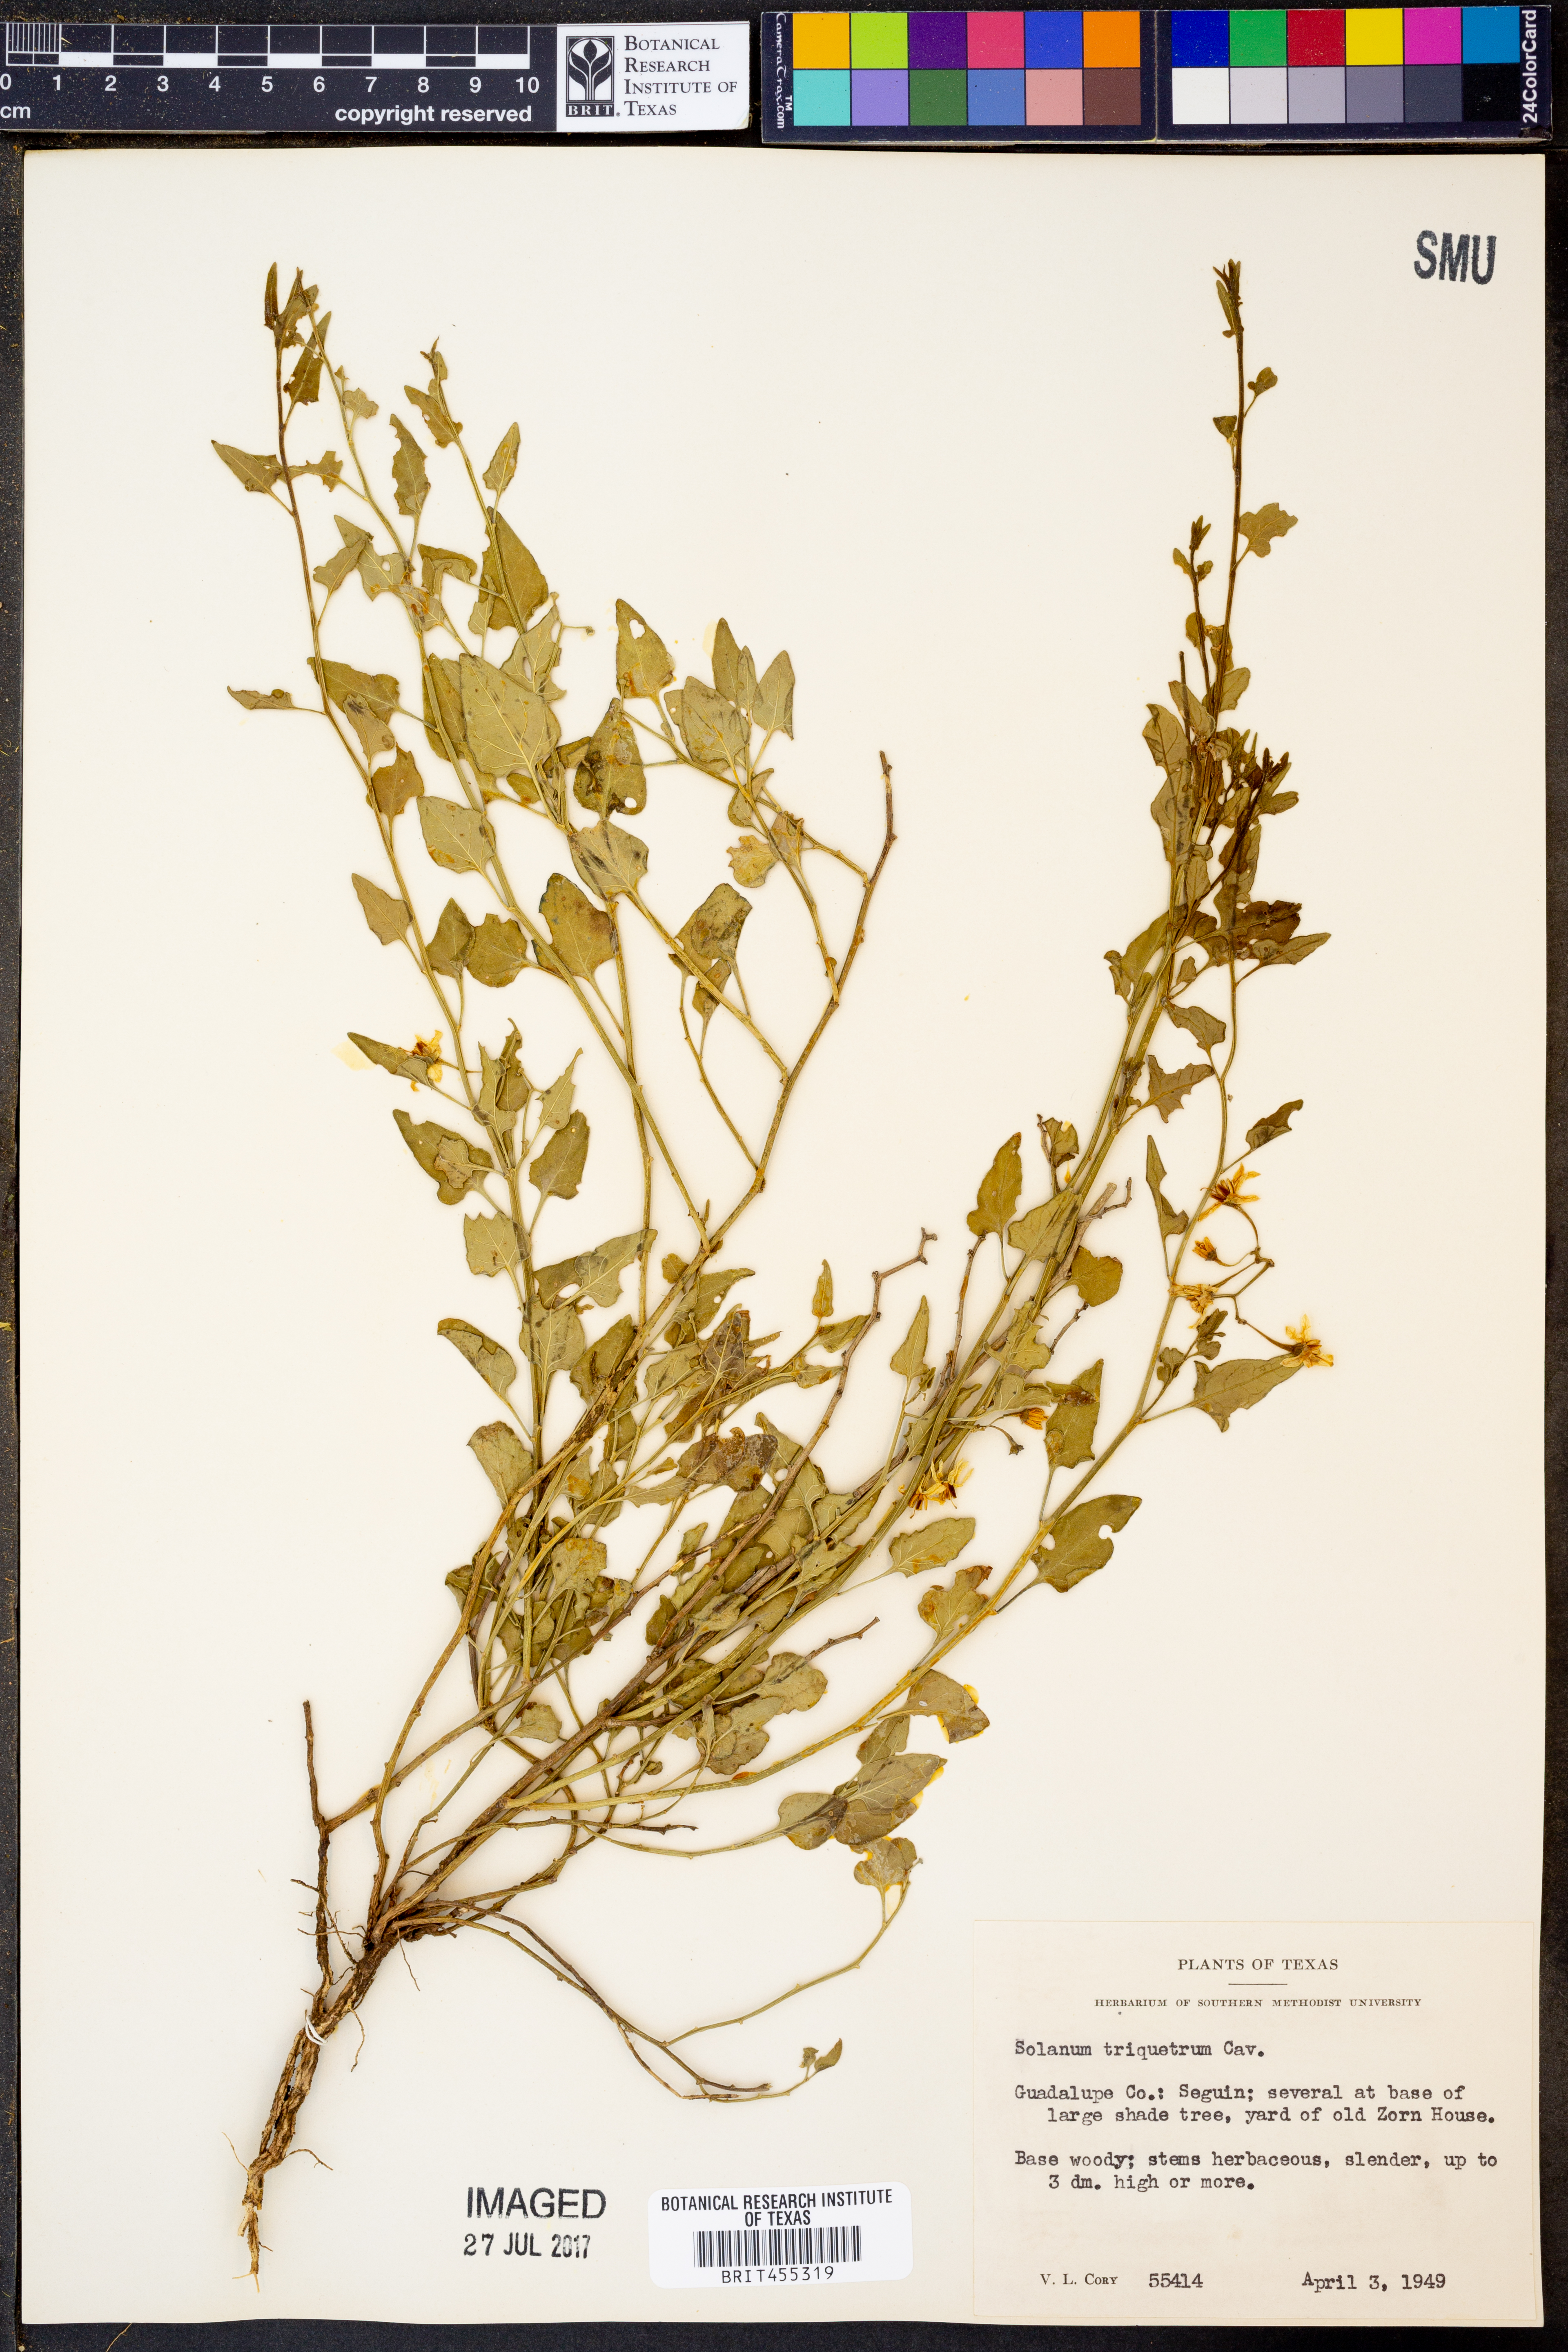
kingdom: Plantae
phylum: Tracheophyta
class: Magnoliopsida
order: Solanales
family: Solanaceae
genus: Solanum
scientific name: Solanum triquetrum
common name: Texas nightshade
